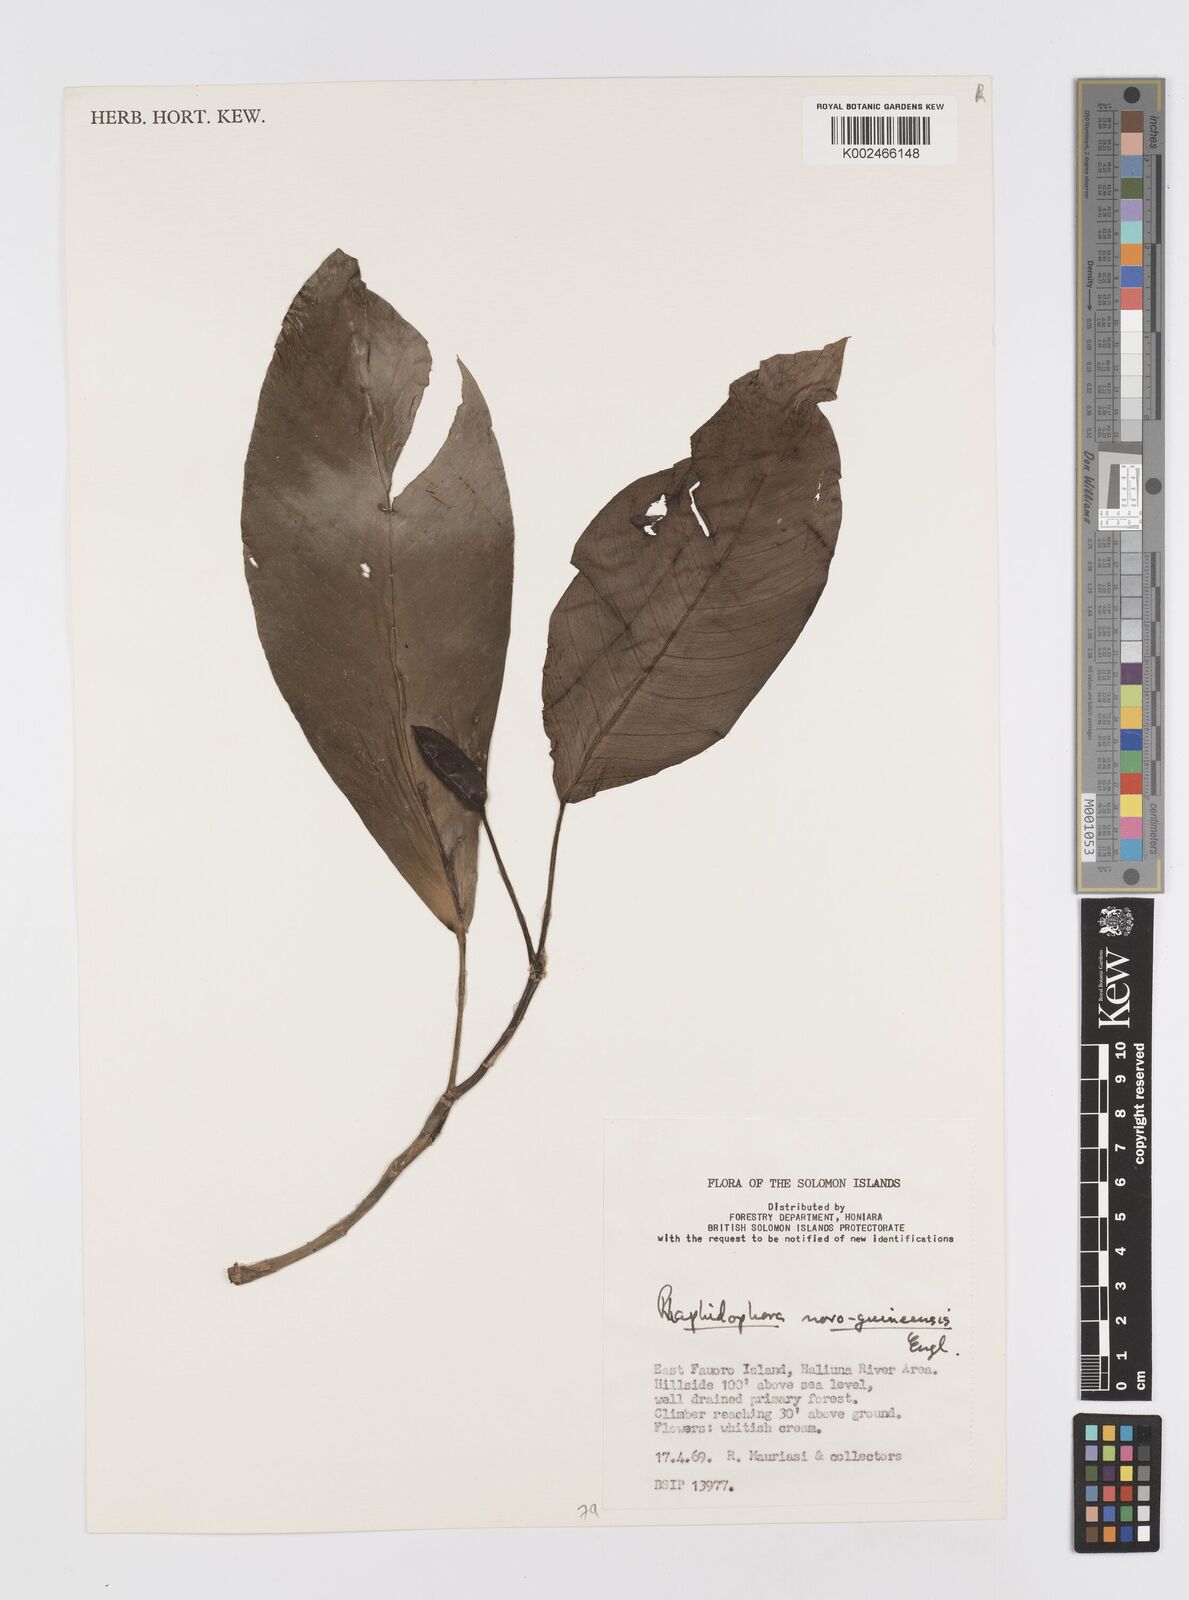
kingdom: Plantae
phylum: Tracheophyta
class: Liliopsida
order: Alismatales
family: Araceae
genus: Rhaphidophora
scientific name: Rhaphidophora mima
